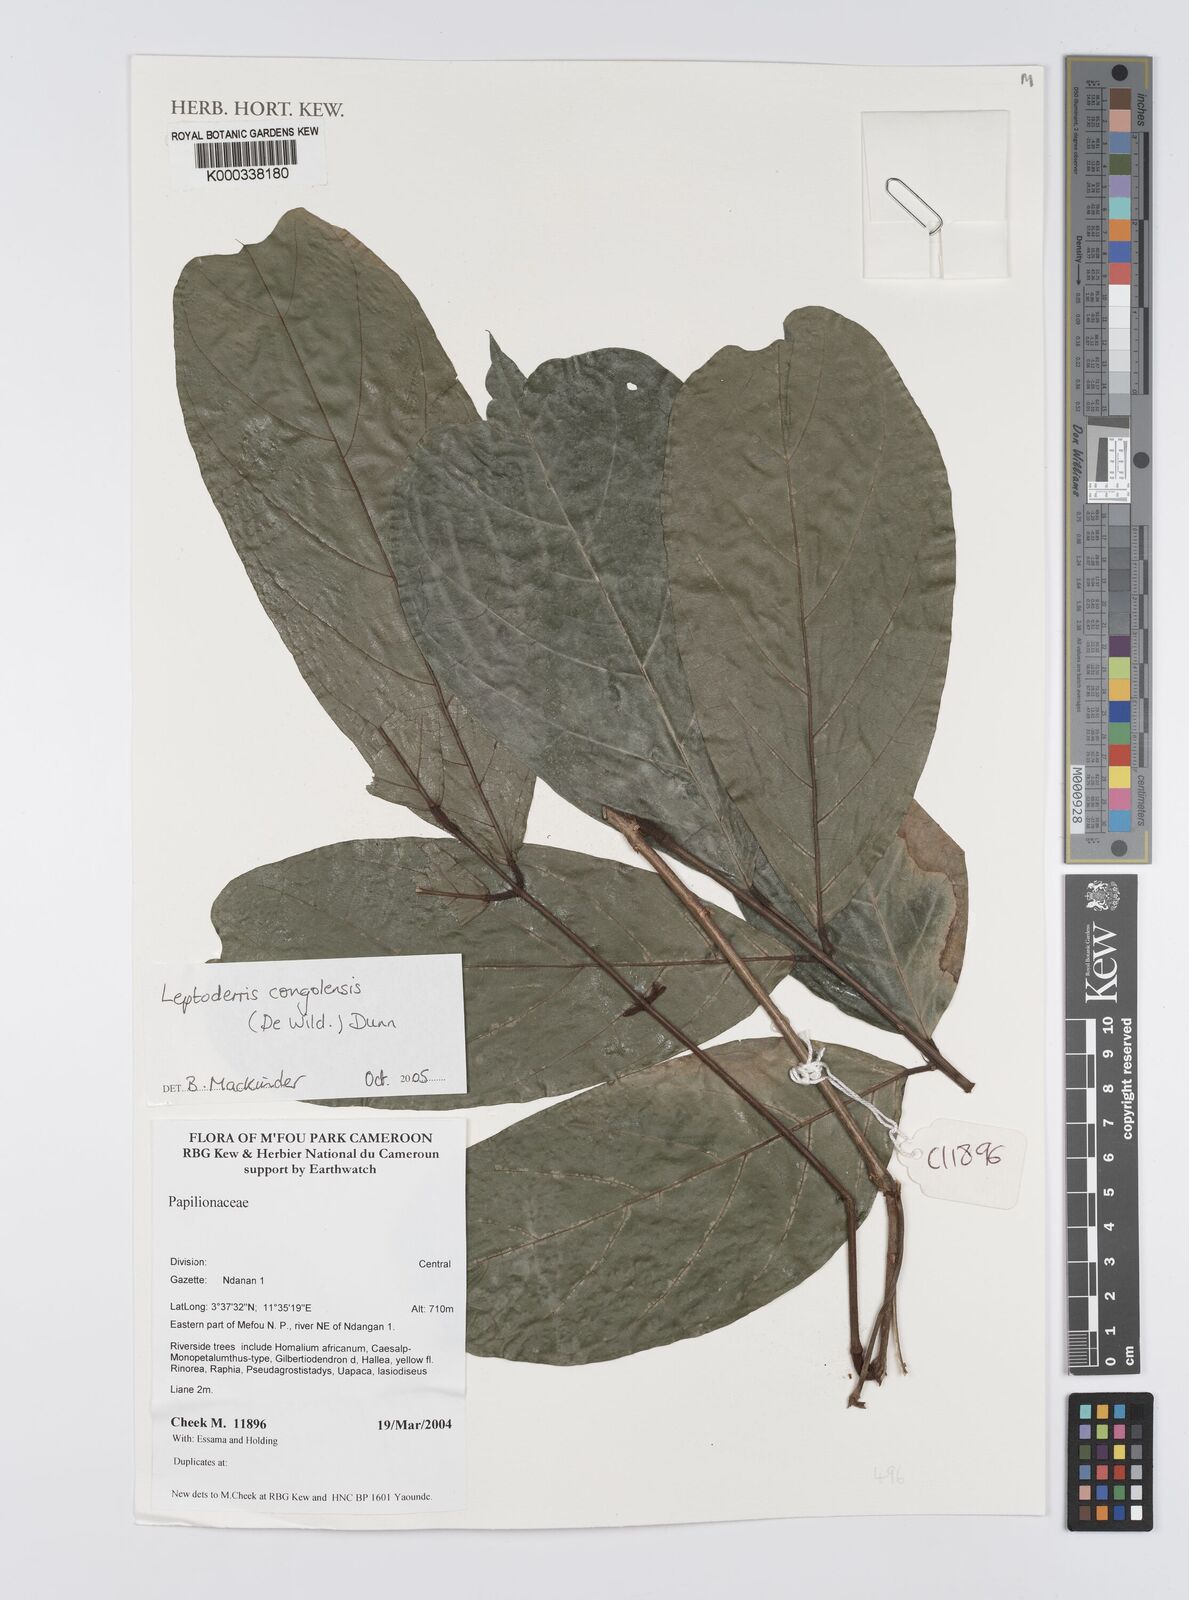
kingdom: Plantae
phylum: Tracheophyta
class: Magnoliopsida
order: Fabales
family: Fabaceae
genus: Leptoderris
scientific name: Leptoderris congolensis
